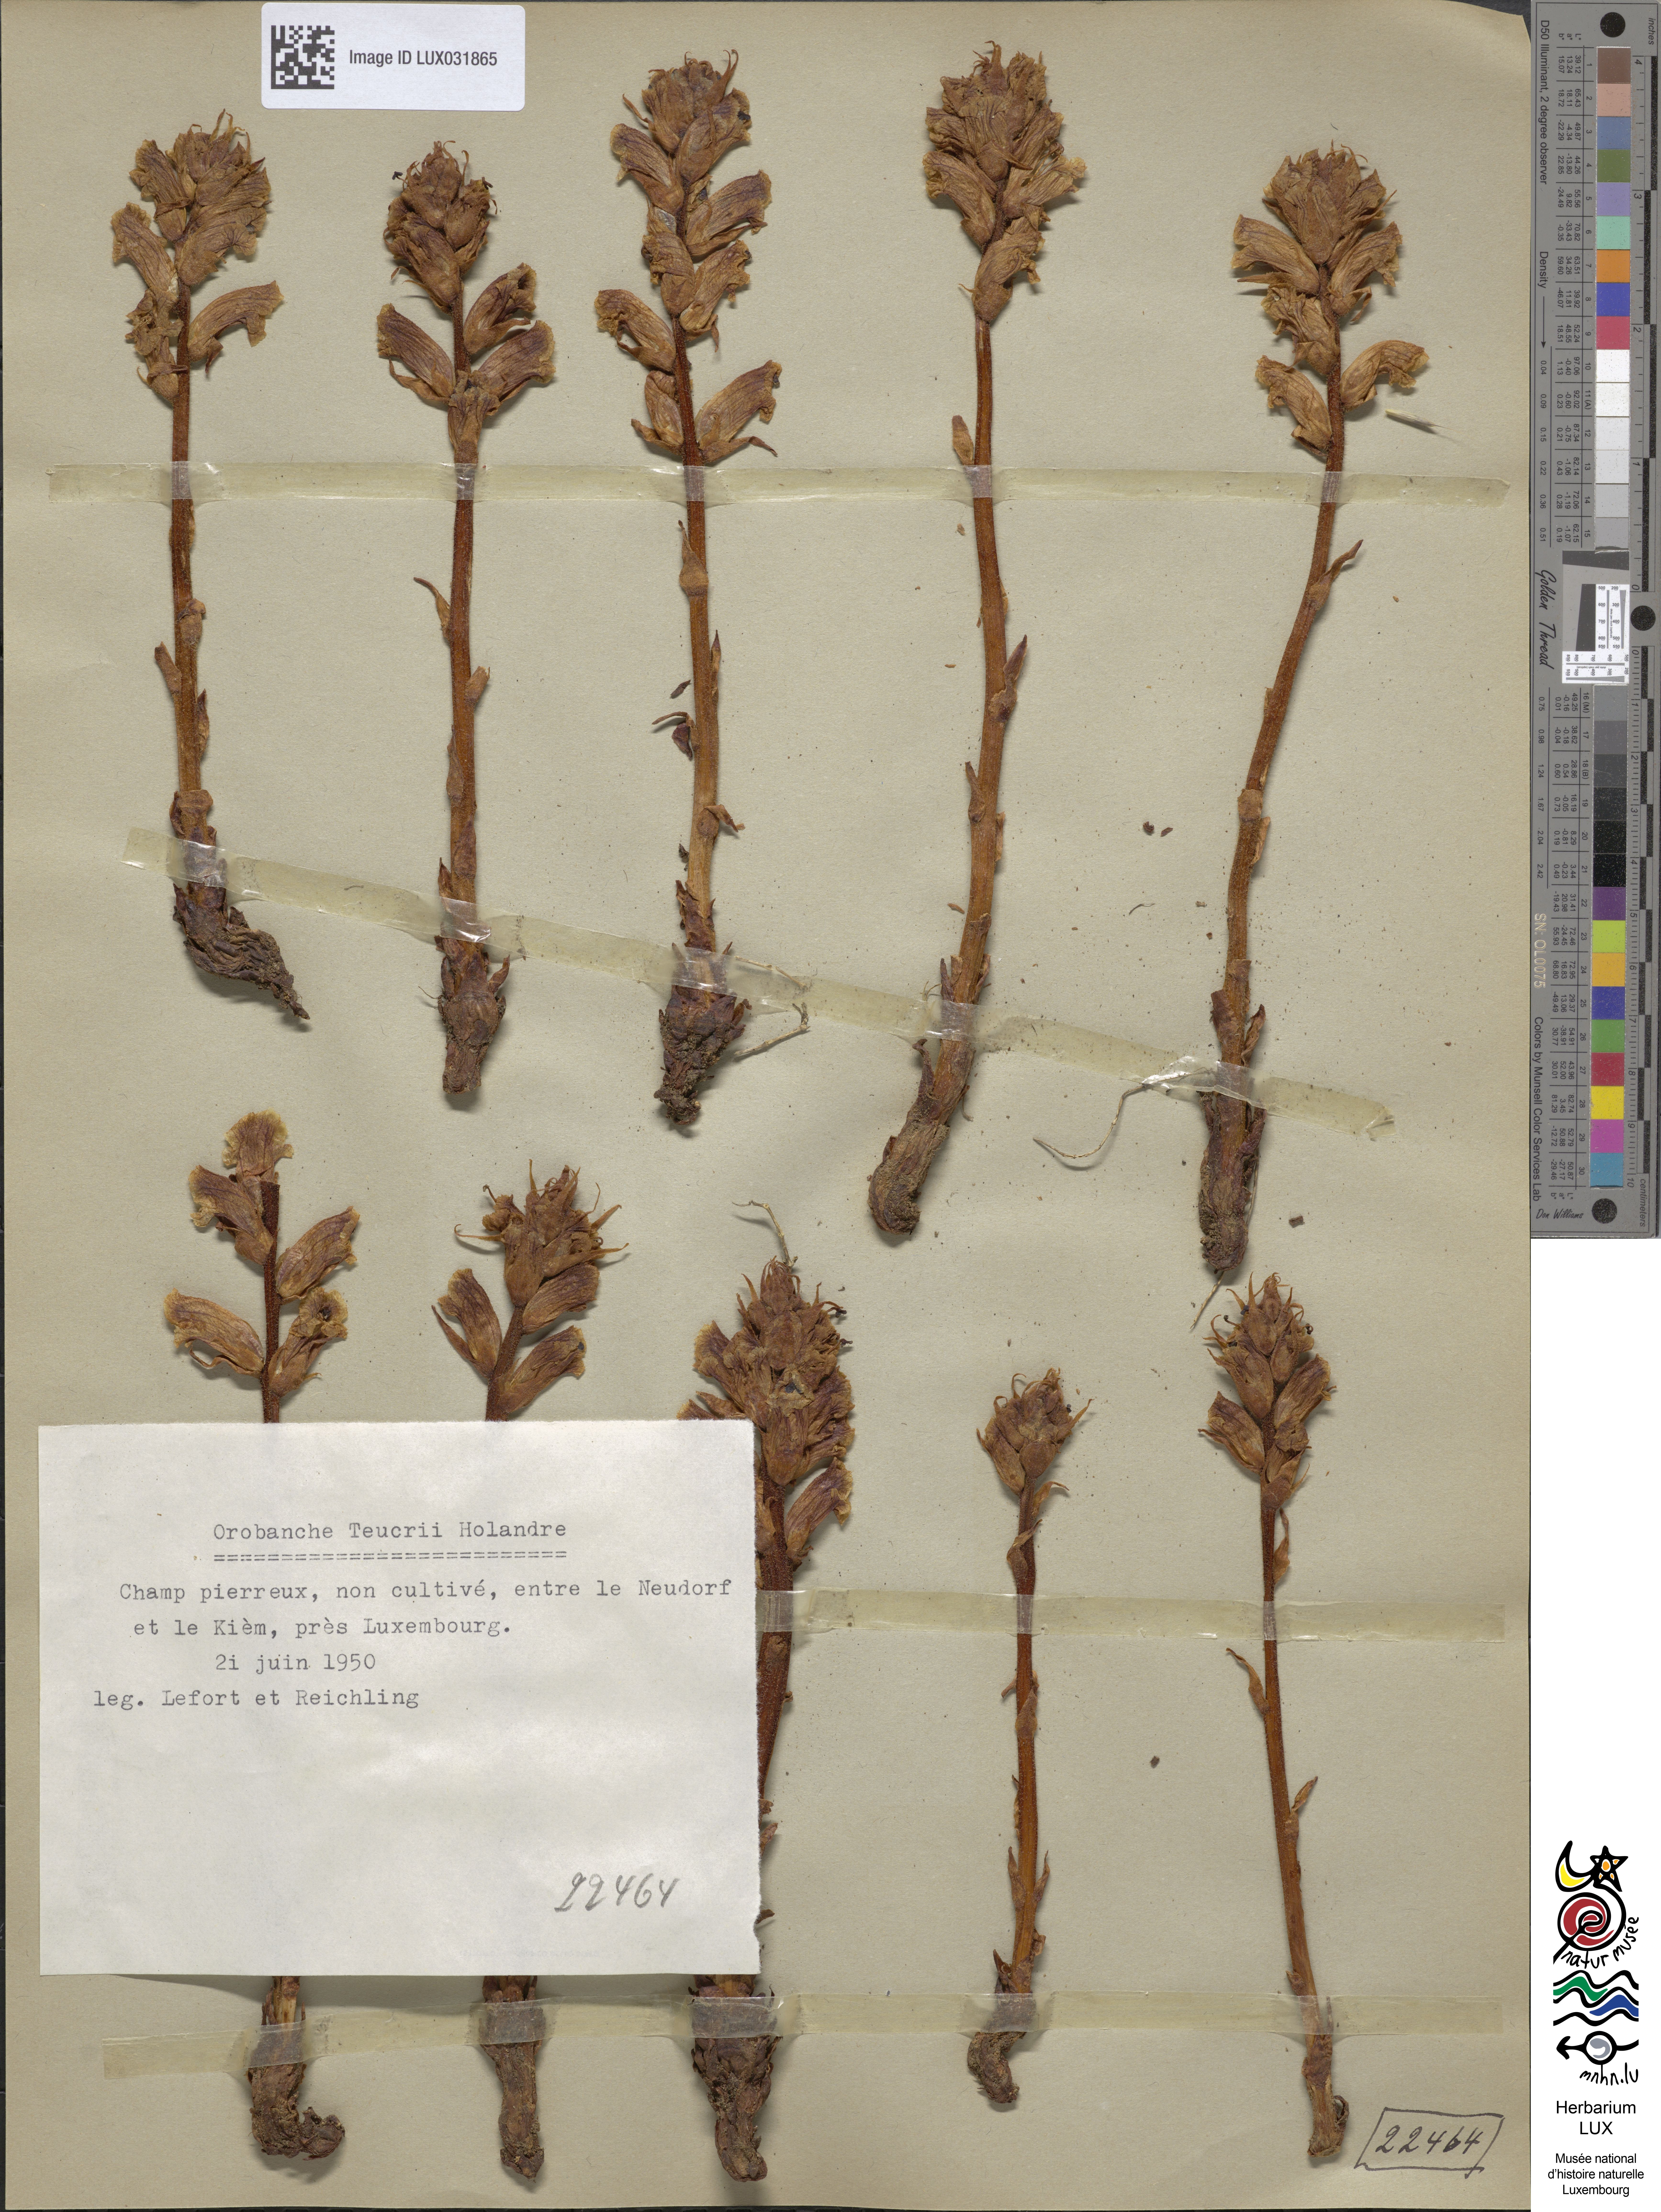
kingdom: Plantae
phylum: Tracheophyta
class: Magnoliopsida
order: Lamiales
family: Orobanchaceae
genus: Orobanche
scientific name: Orobanche teucrii
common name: Germander broomrape
